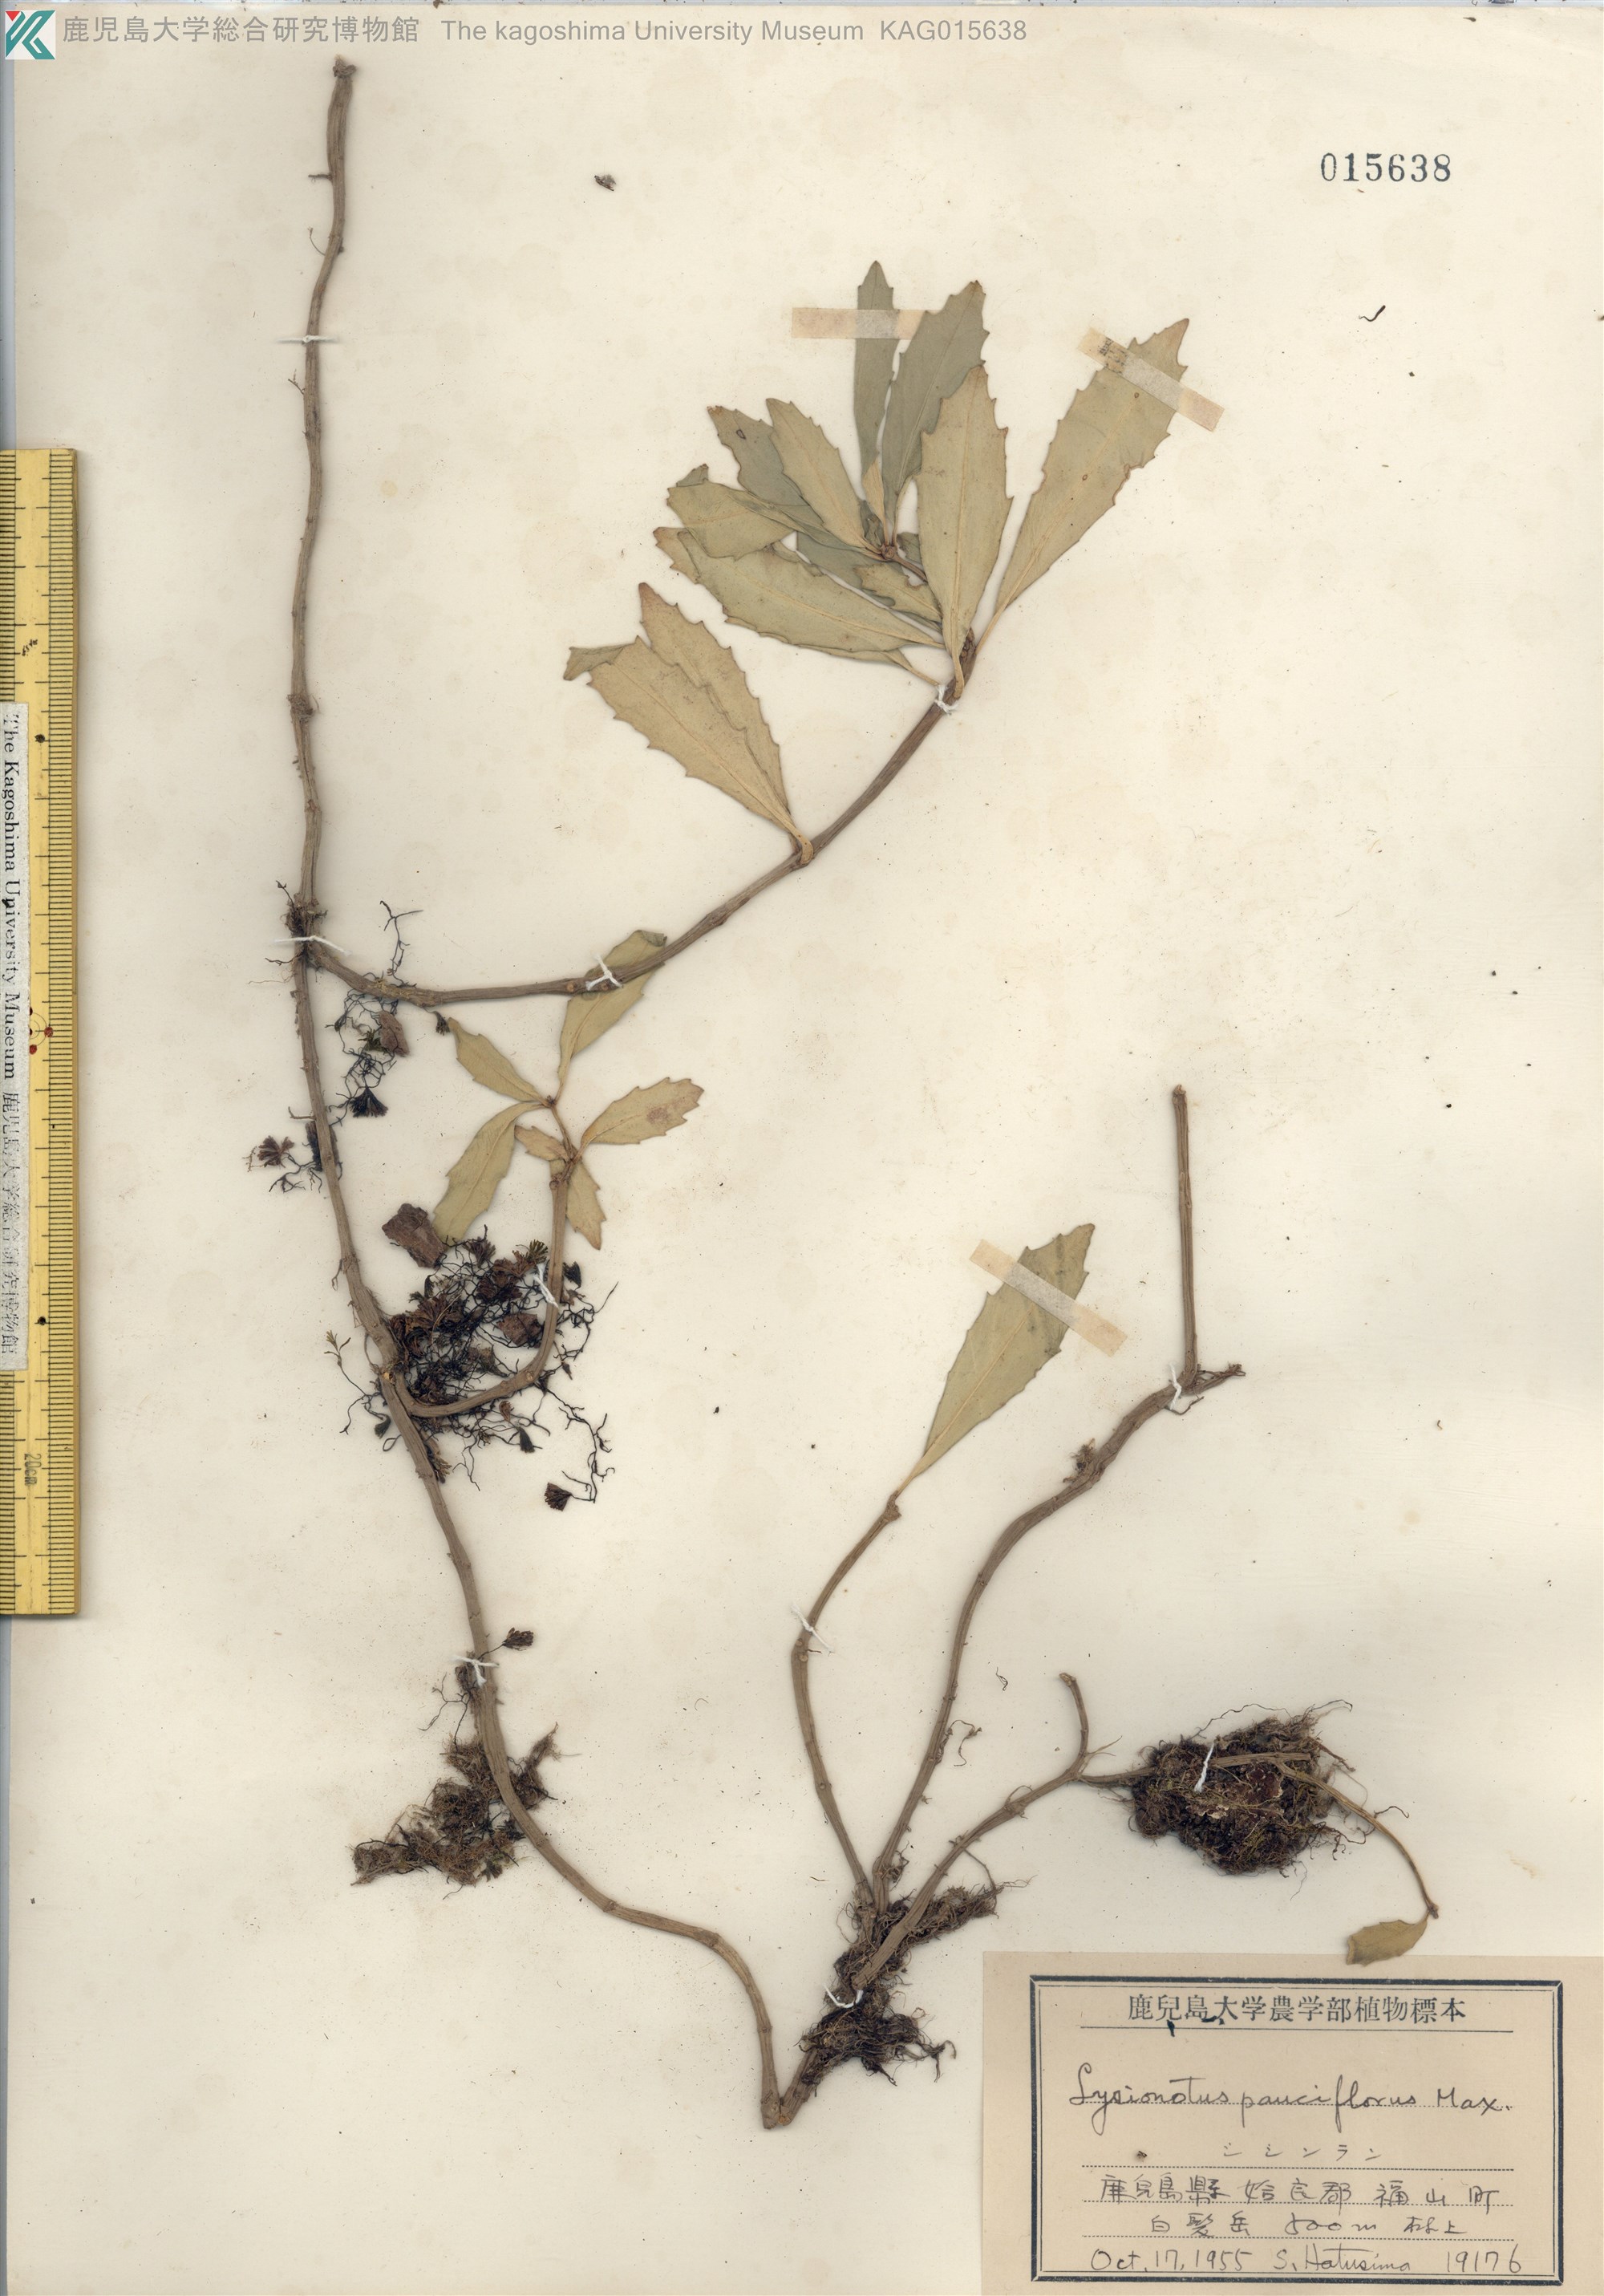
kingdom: Plantae
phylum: Tracheophyta
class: Magnoliopsida
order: Lamiales
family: Gesneriaceae
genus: Lysionotus
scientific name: Lysionotus pauciflorus
